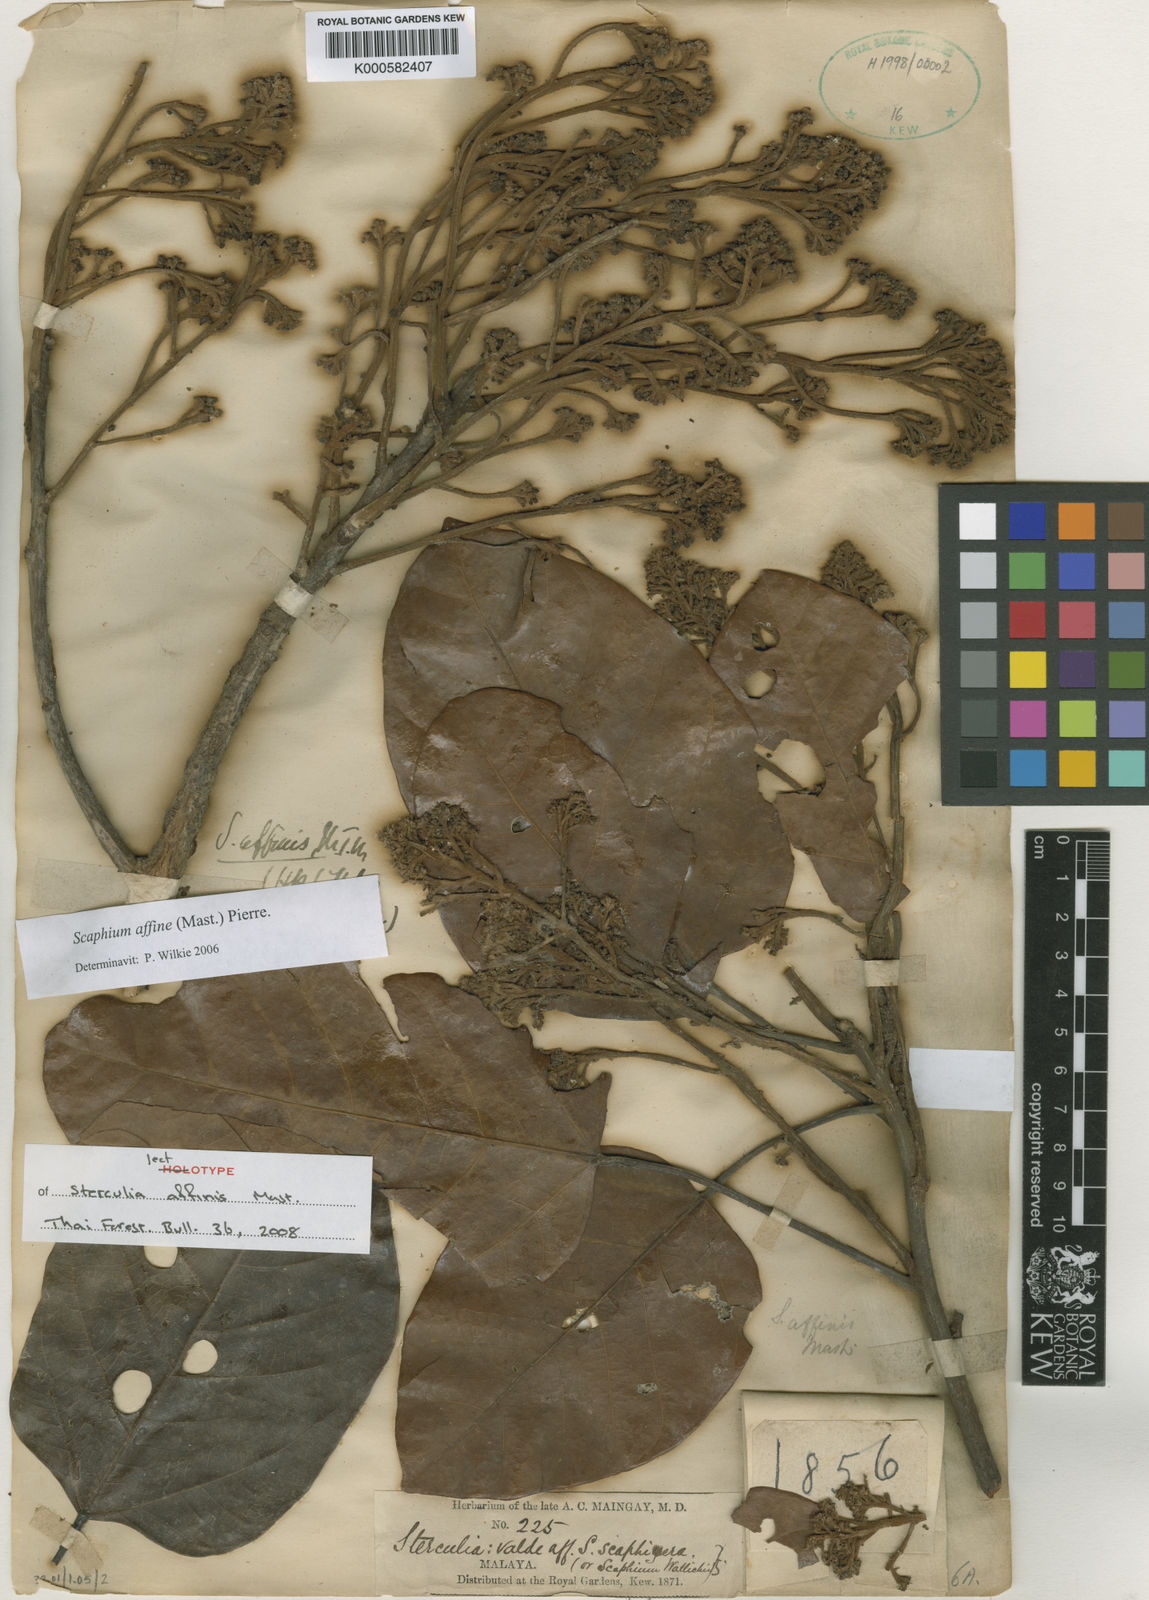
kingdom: Plantae
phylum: Tracheophyta
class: Magnoliopsida
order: Malvales
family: Malvaceae
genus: Scaphium
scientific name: Scaphium affine
